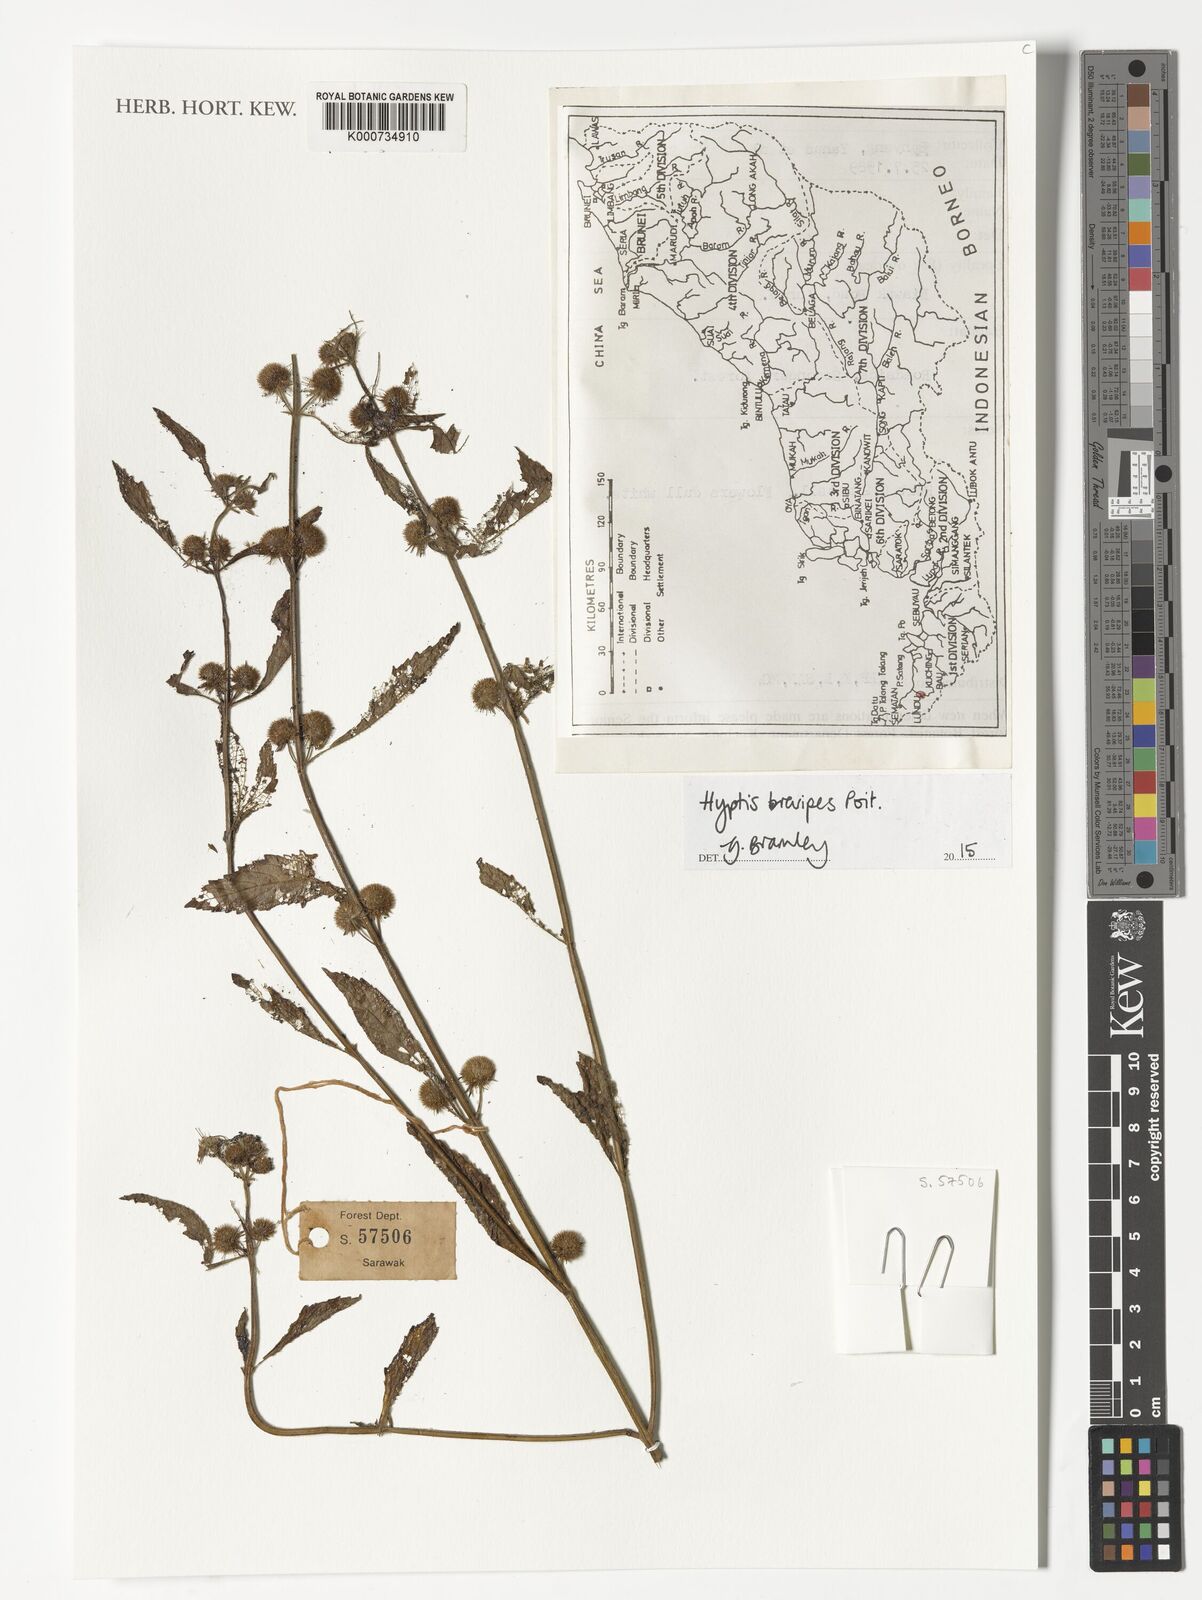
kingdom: Plantae
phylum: Tracheophyta
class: Magnoliopsida
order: Lamiales
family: Lamiaceae
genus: Hyptis
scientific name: Hyptis brevipes
